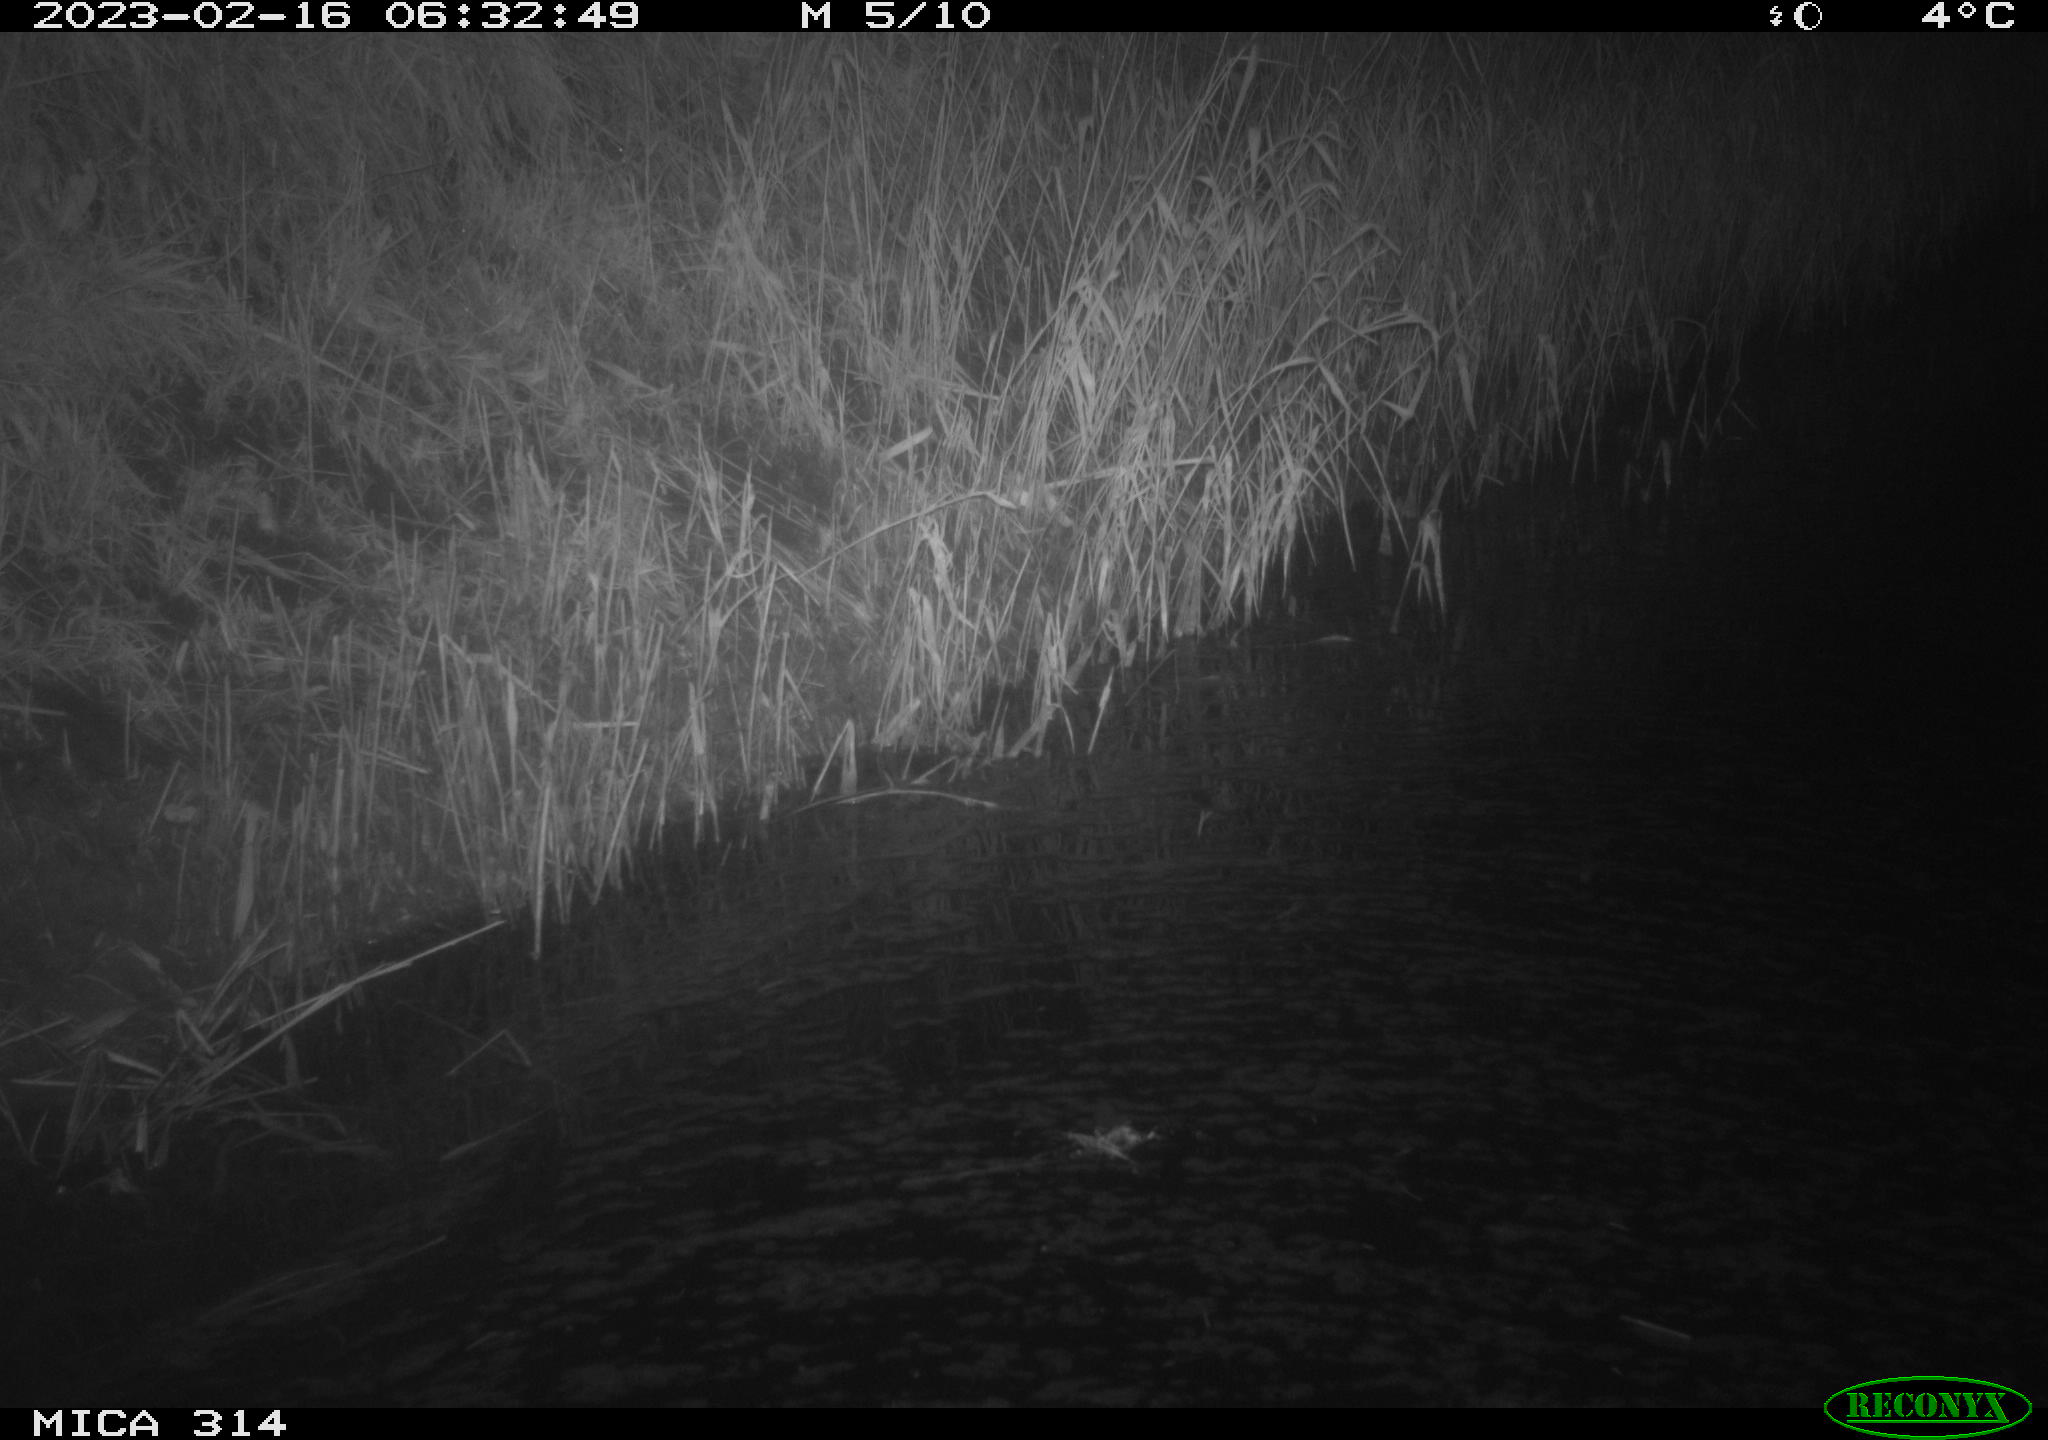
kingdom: Animalia
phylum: Chordata
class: Mammalia
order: Rodentia
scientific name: Rodentia
